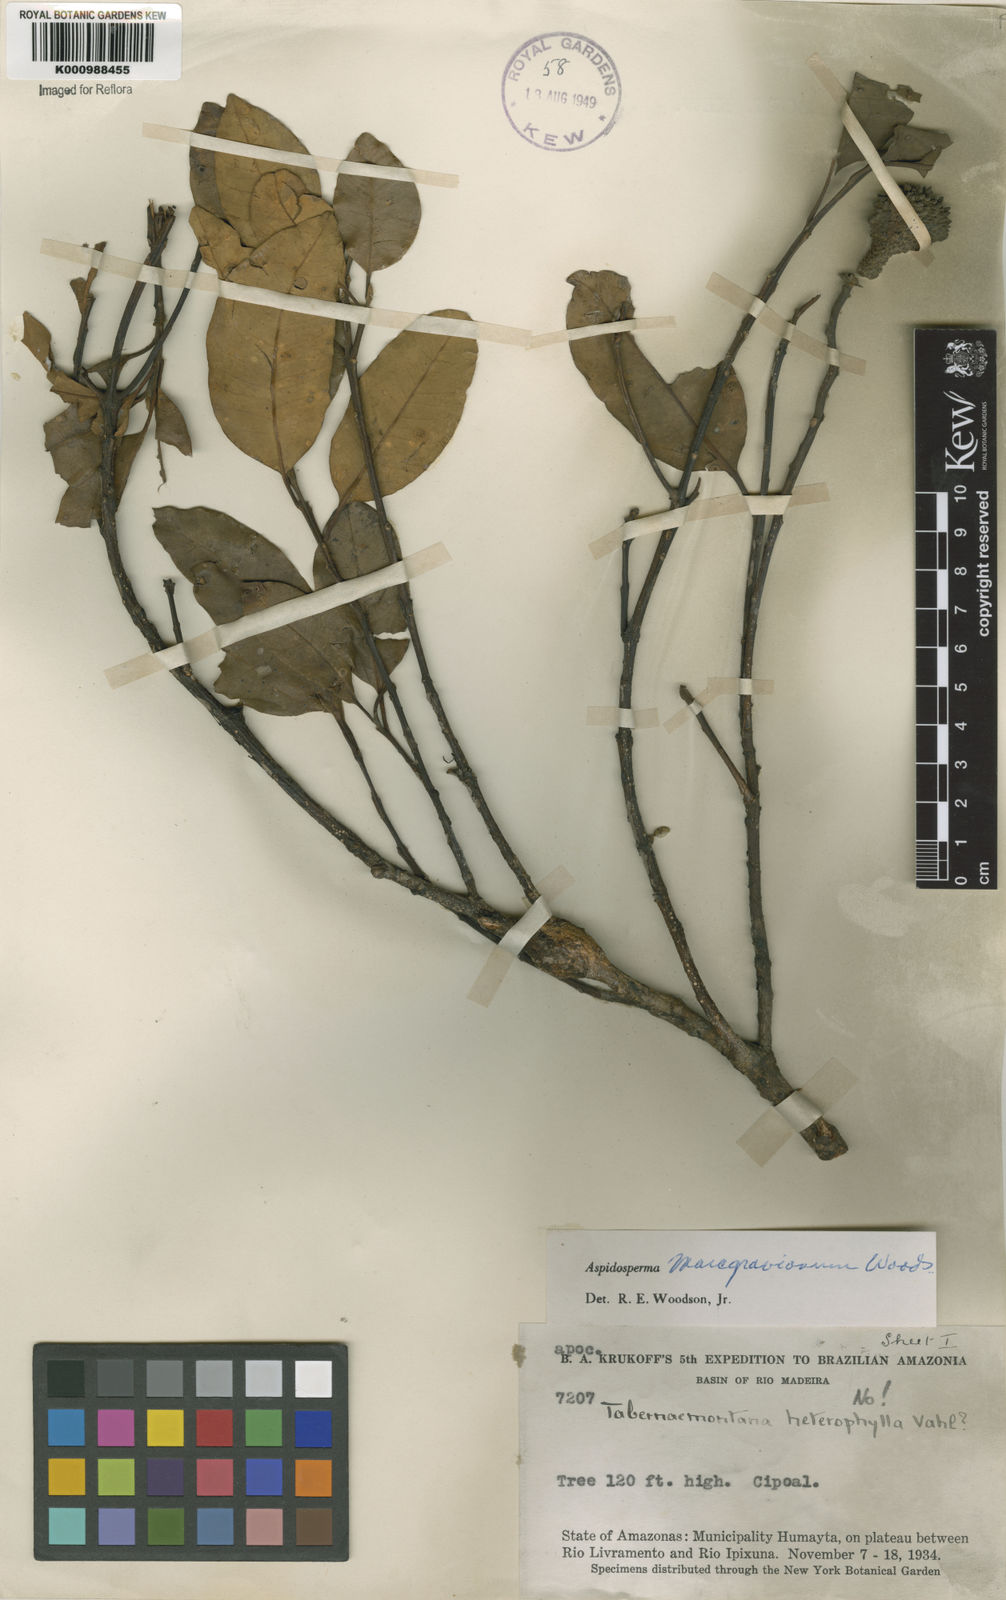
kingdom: Plantae
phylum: Tracheophyta
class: Magnoliopsida
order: Gentianales
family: Apocynaceae
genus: Aspidosperma
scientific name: Aspidosperma excelsum
